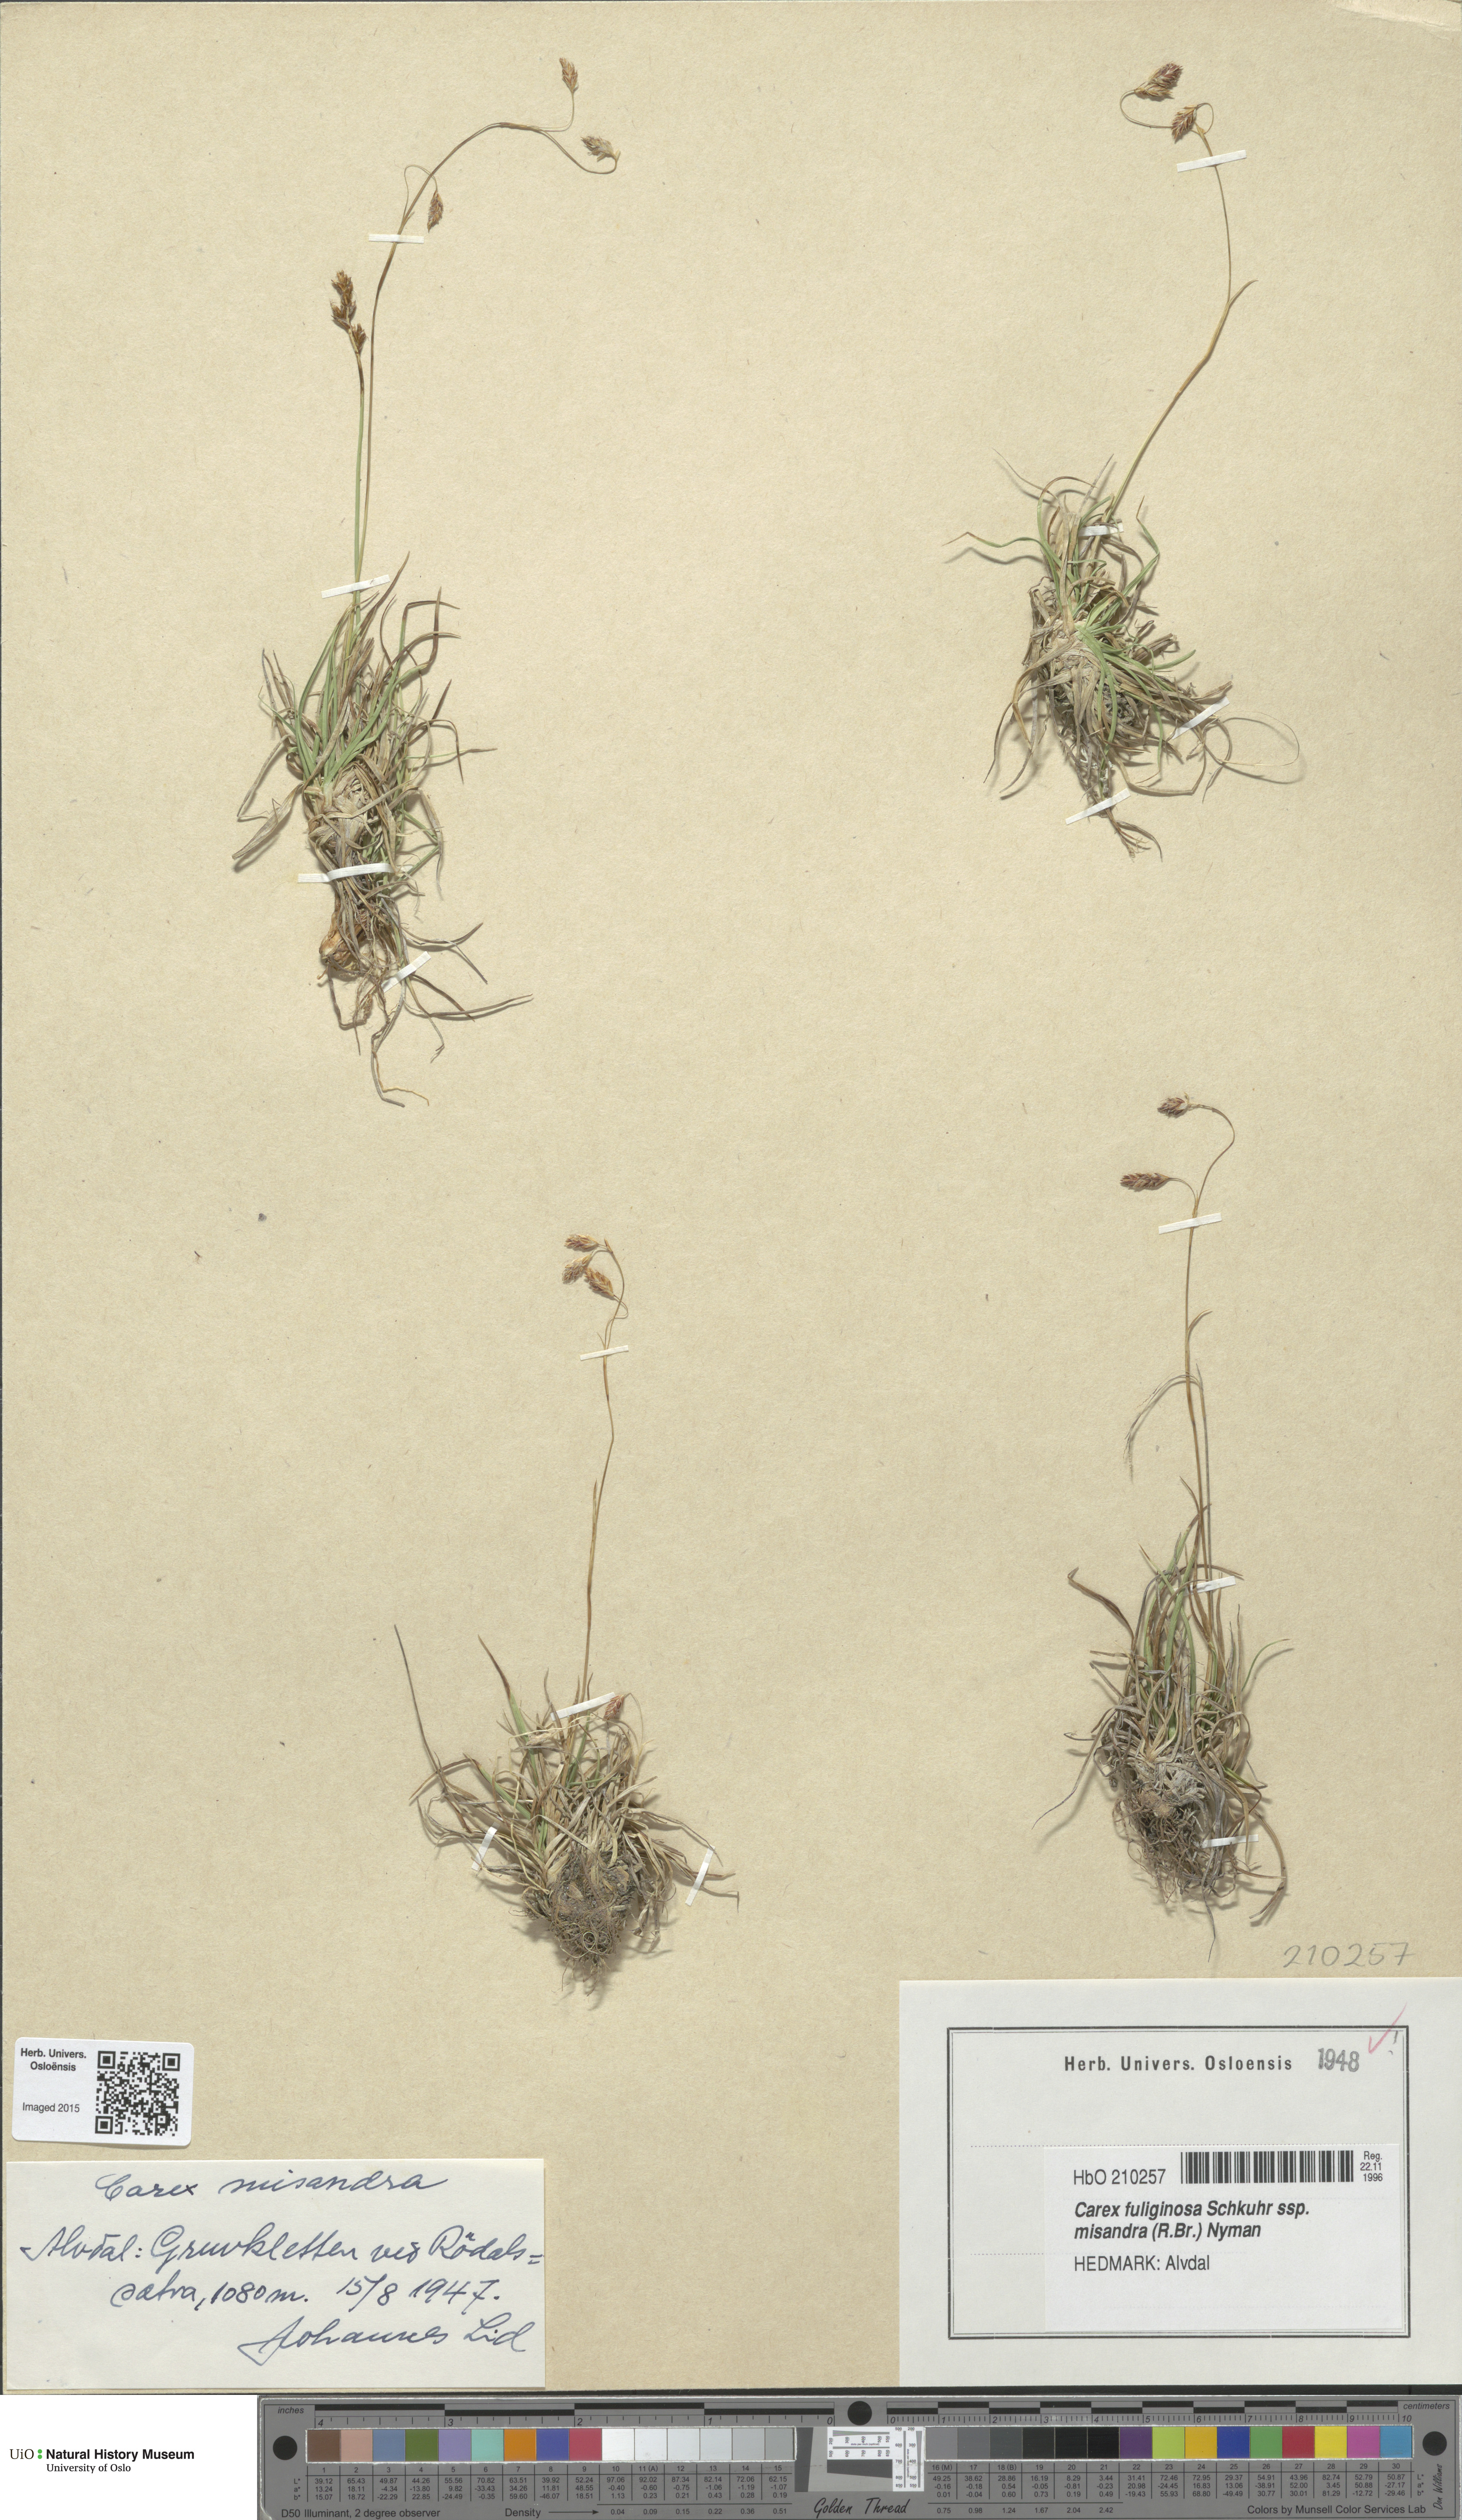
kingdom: Plantae
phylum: Tracheophyta
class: Liliopsida
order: Poales
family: Cyperaceae
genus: Carex
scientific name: Carex fuliginosa
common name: Few-flowered sedge
